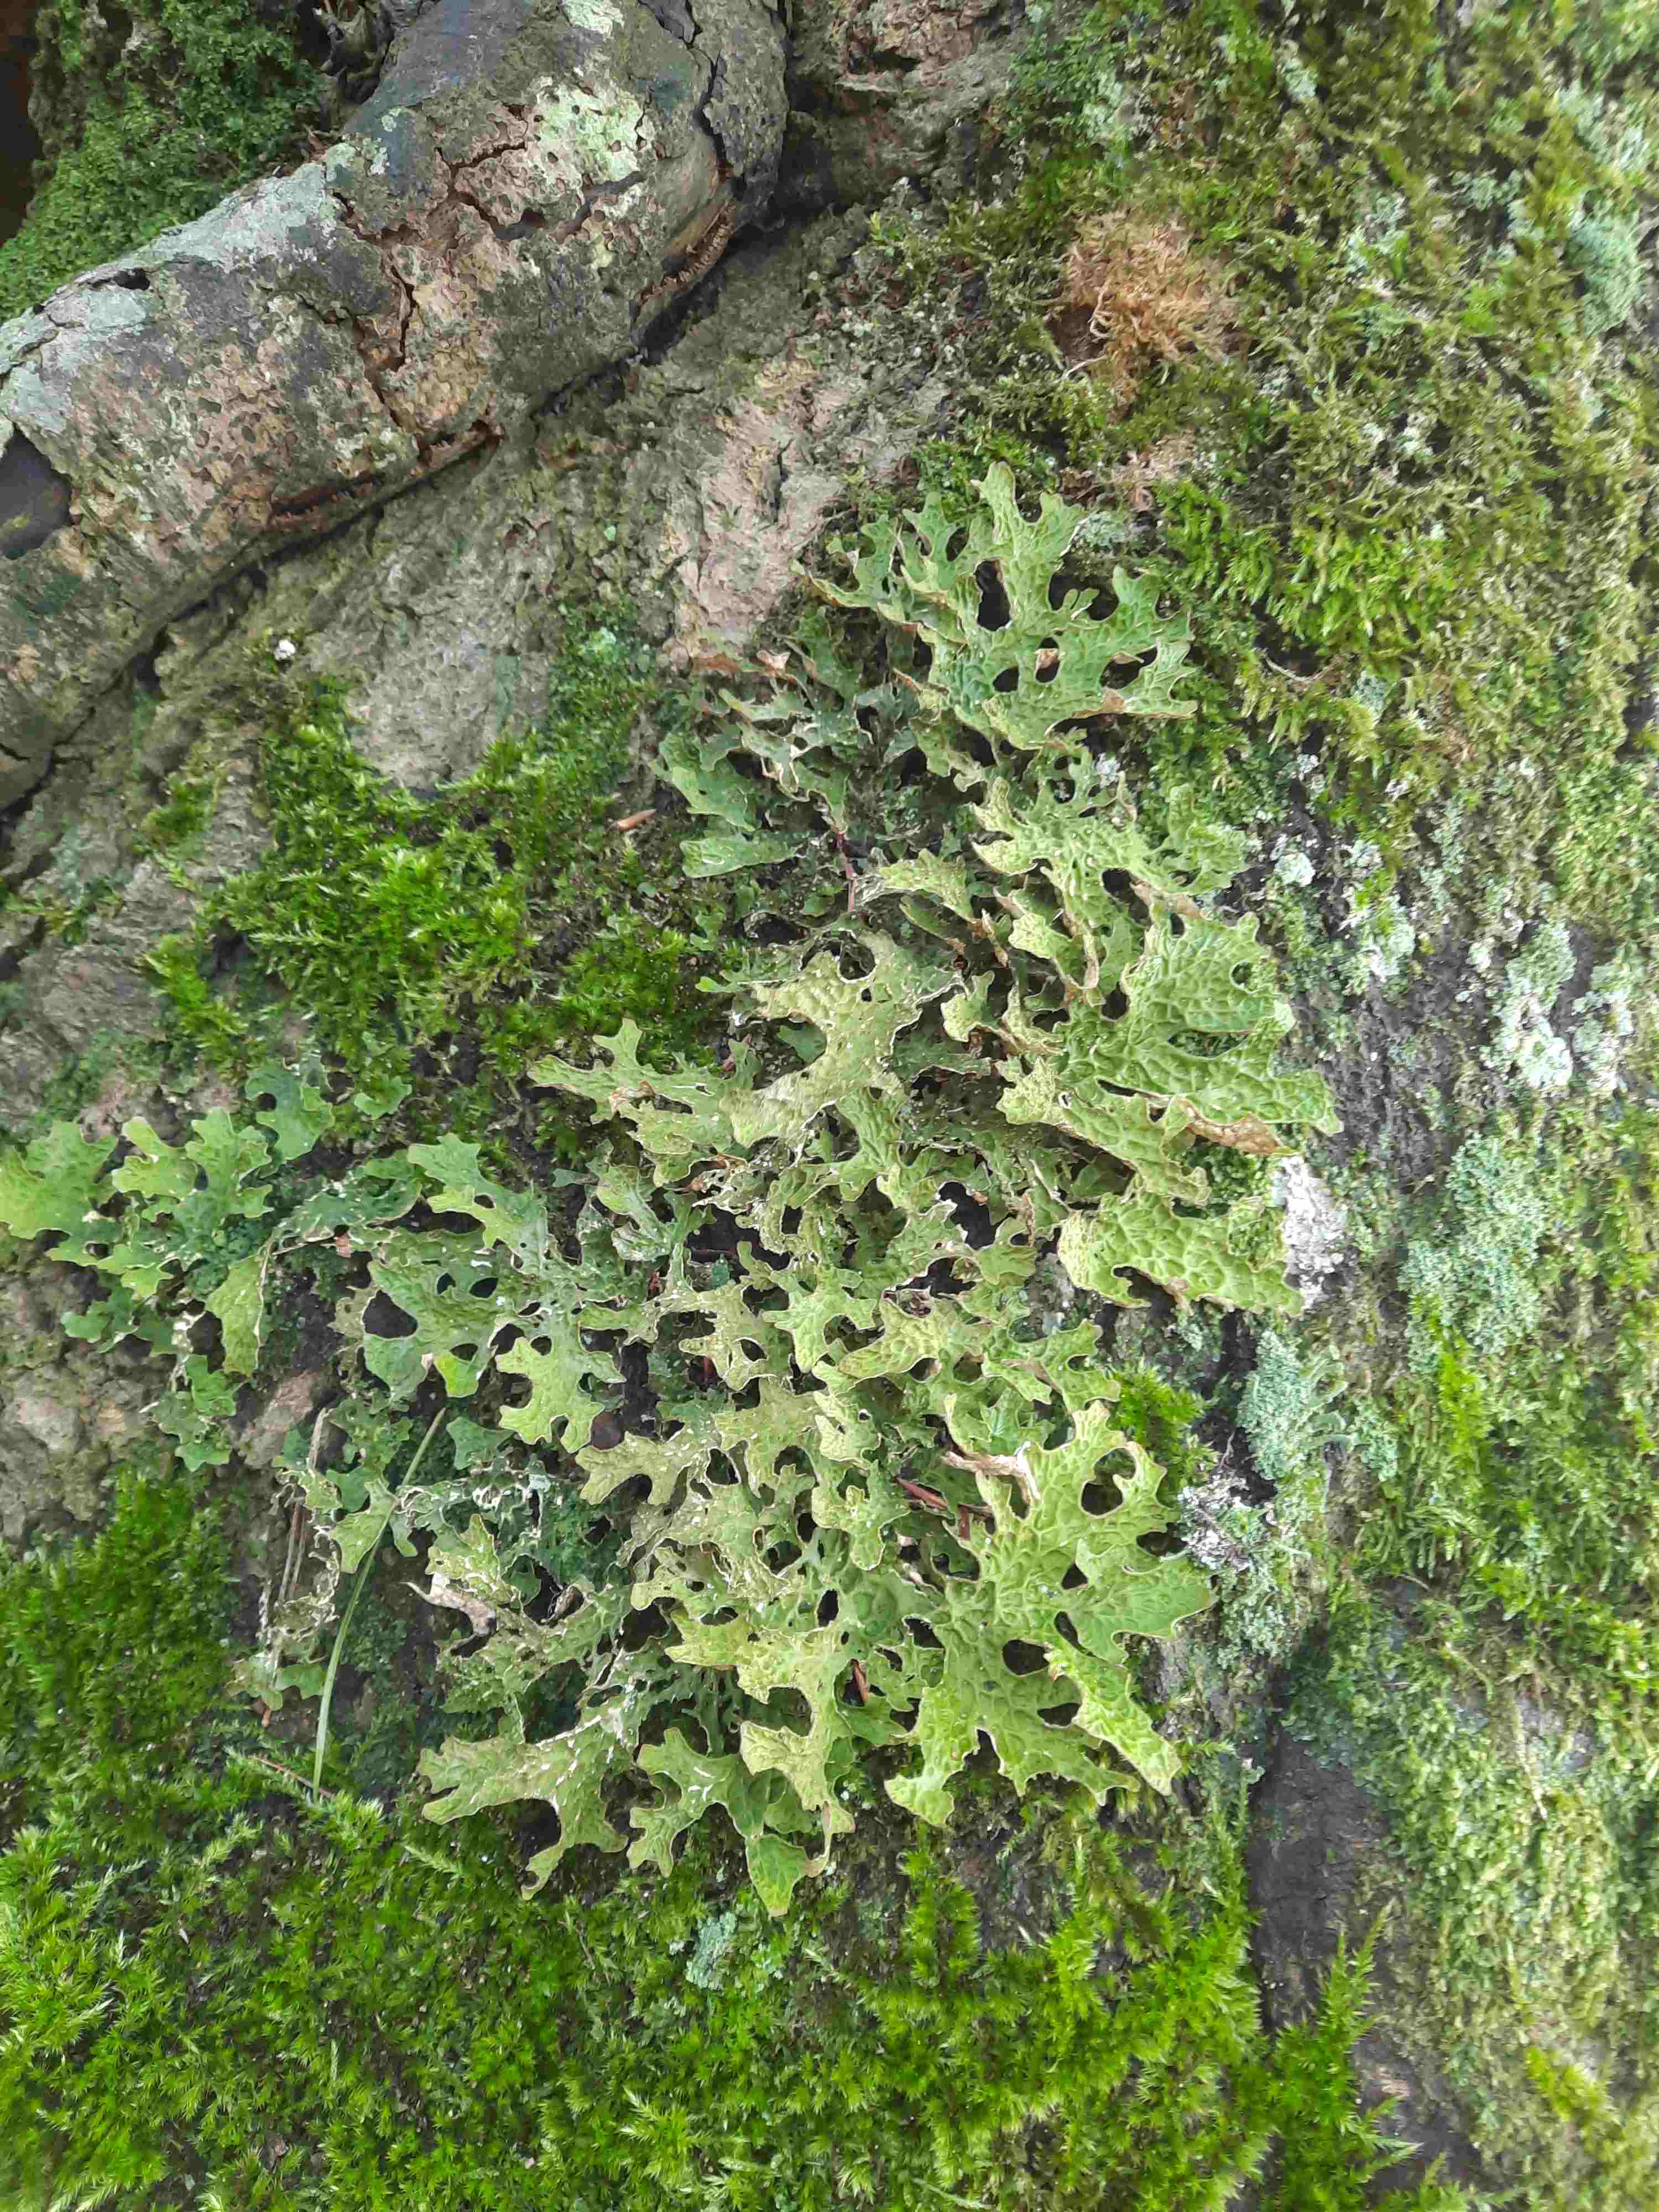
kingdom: Fungi
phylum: Ascomycota
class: Lecanoromycetes
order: Peltigerales
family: Lobariaceae
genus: Lobaria
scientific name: Lobaria pulmonaria
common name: almindelig lungelav
